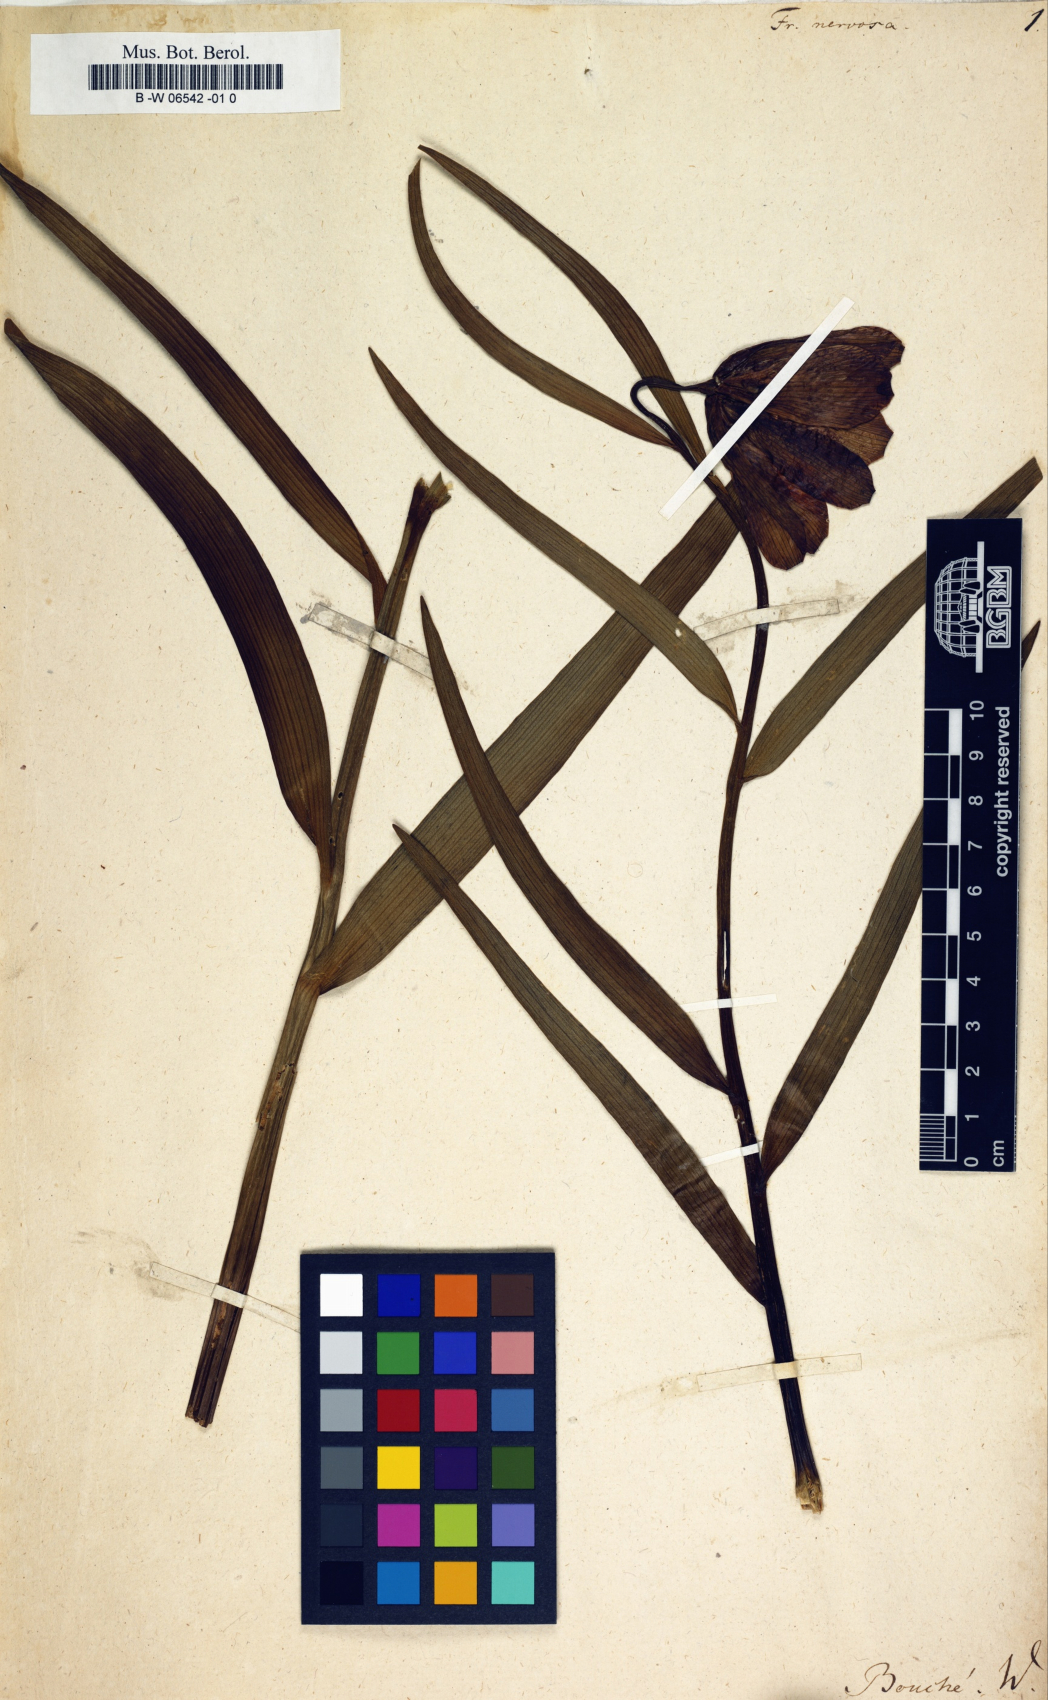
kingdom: Plantae
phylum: Tracheophyta
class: Liliopsida
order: Liliales
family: Liliaceae
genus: Fritillaria
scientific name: Fritillaria nervosa
